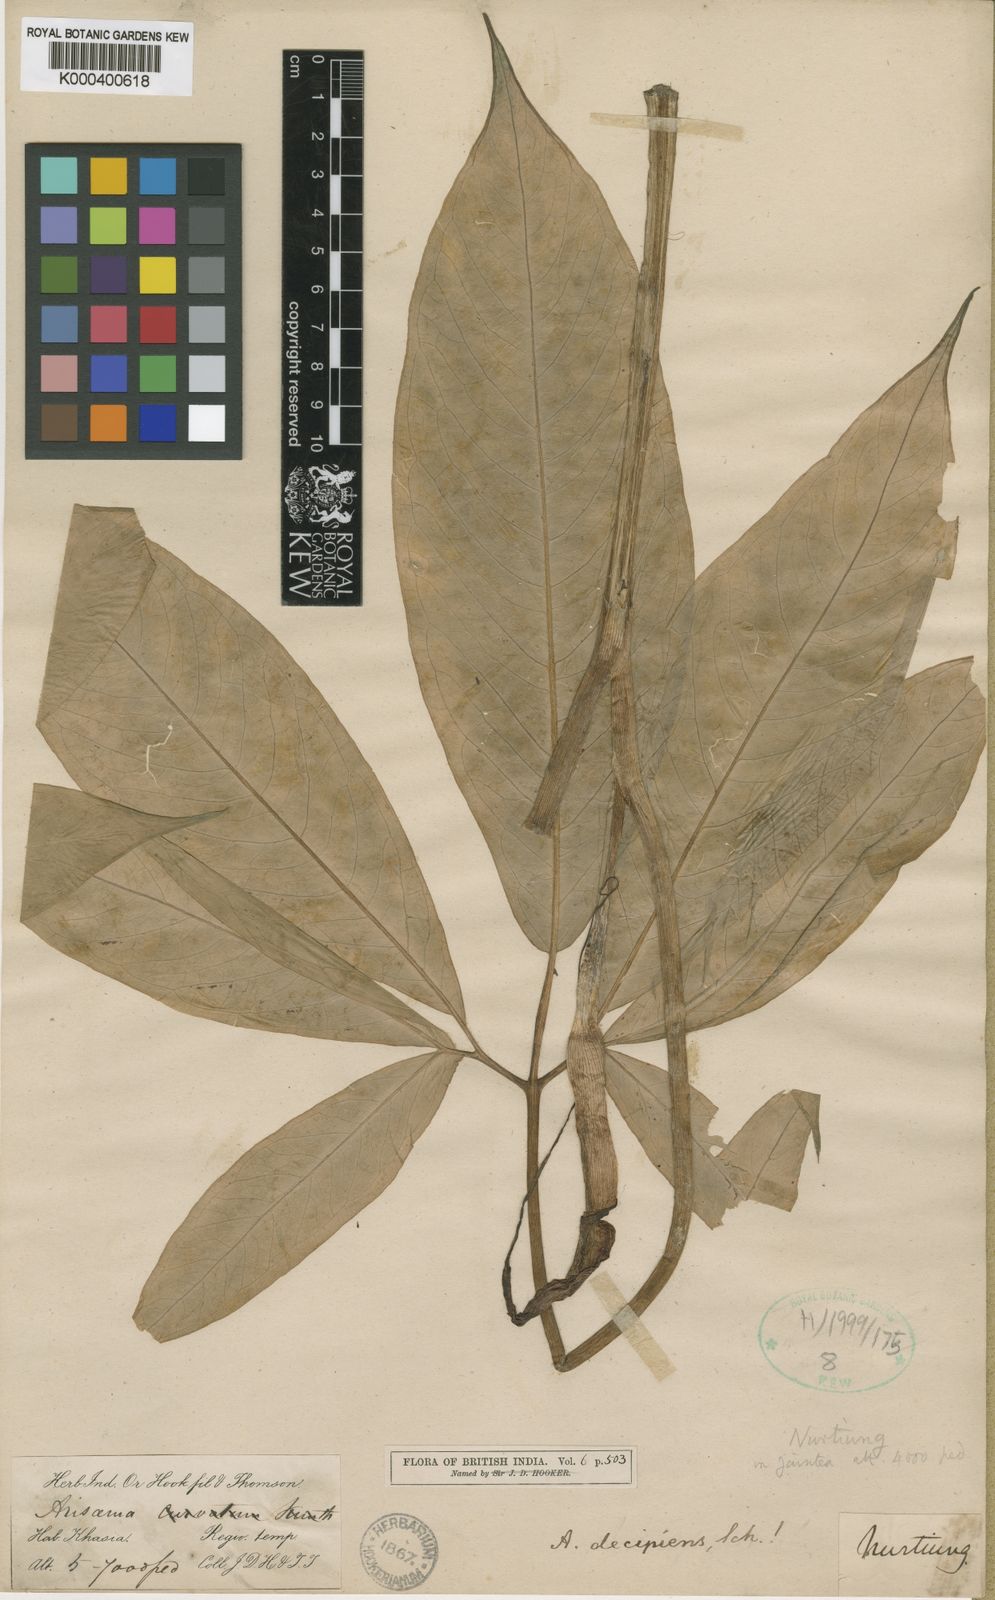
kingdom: Plantae
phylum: Tracheophyta
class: Liliopsida
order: Alismatales
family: Araceae
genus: Arisaema
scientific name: Arisaema decipiens
